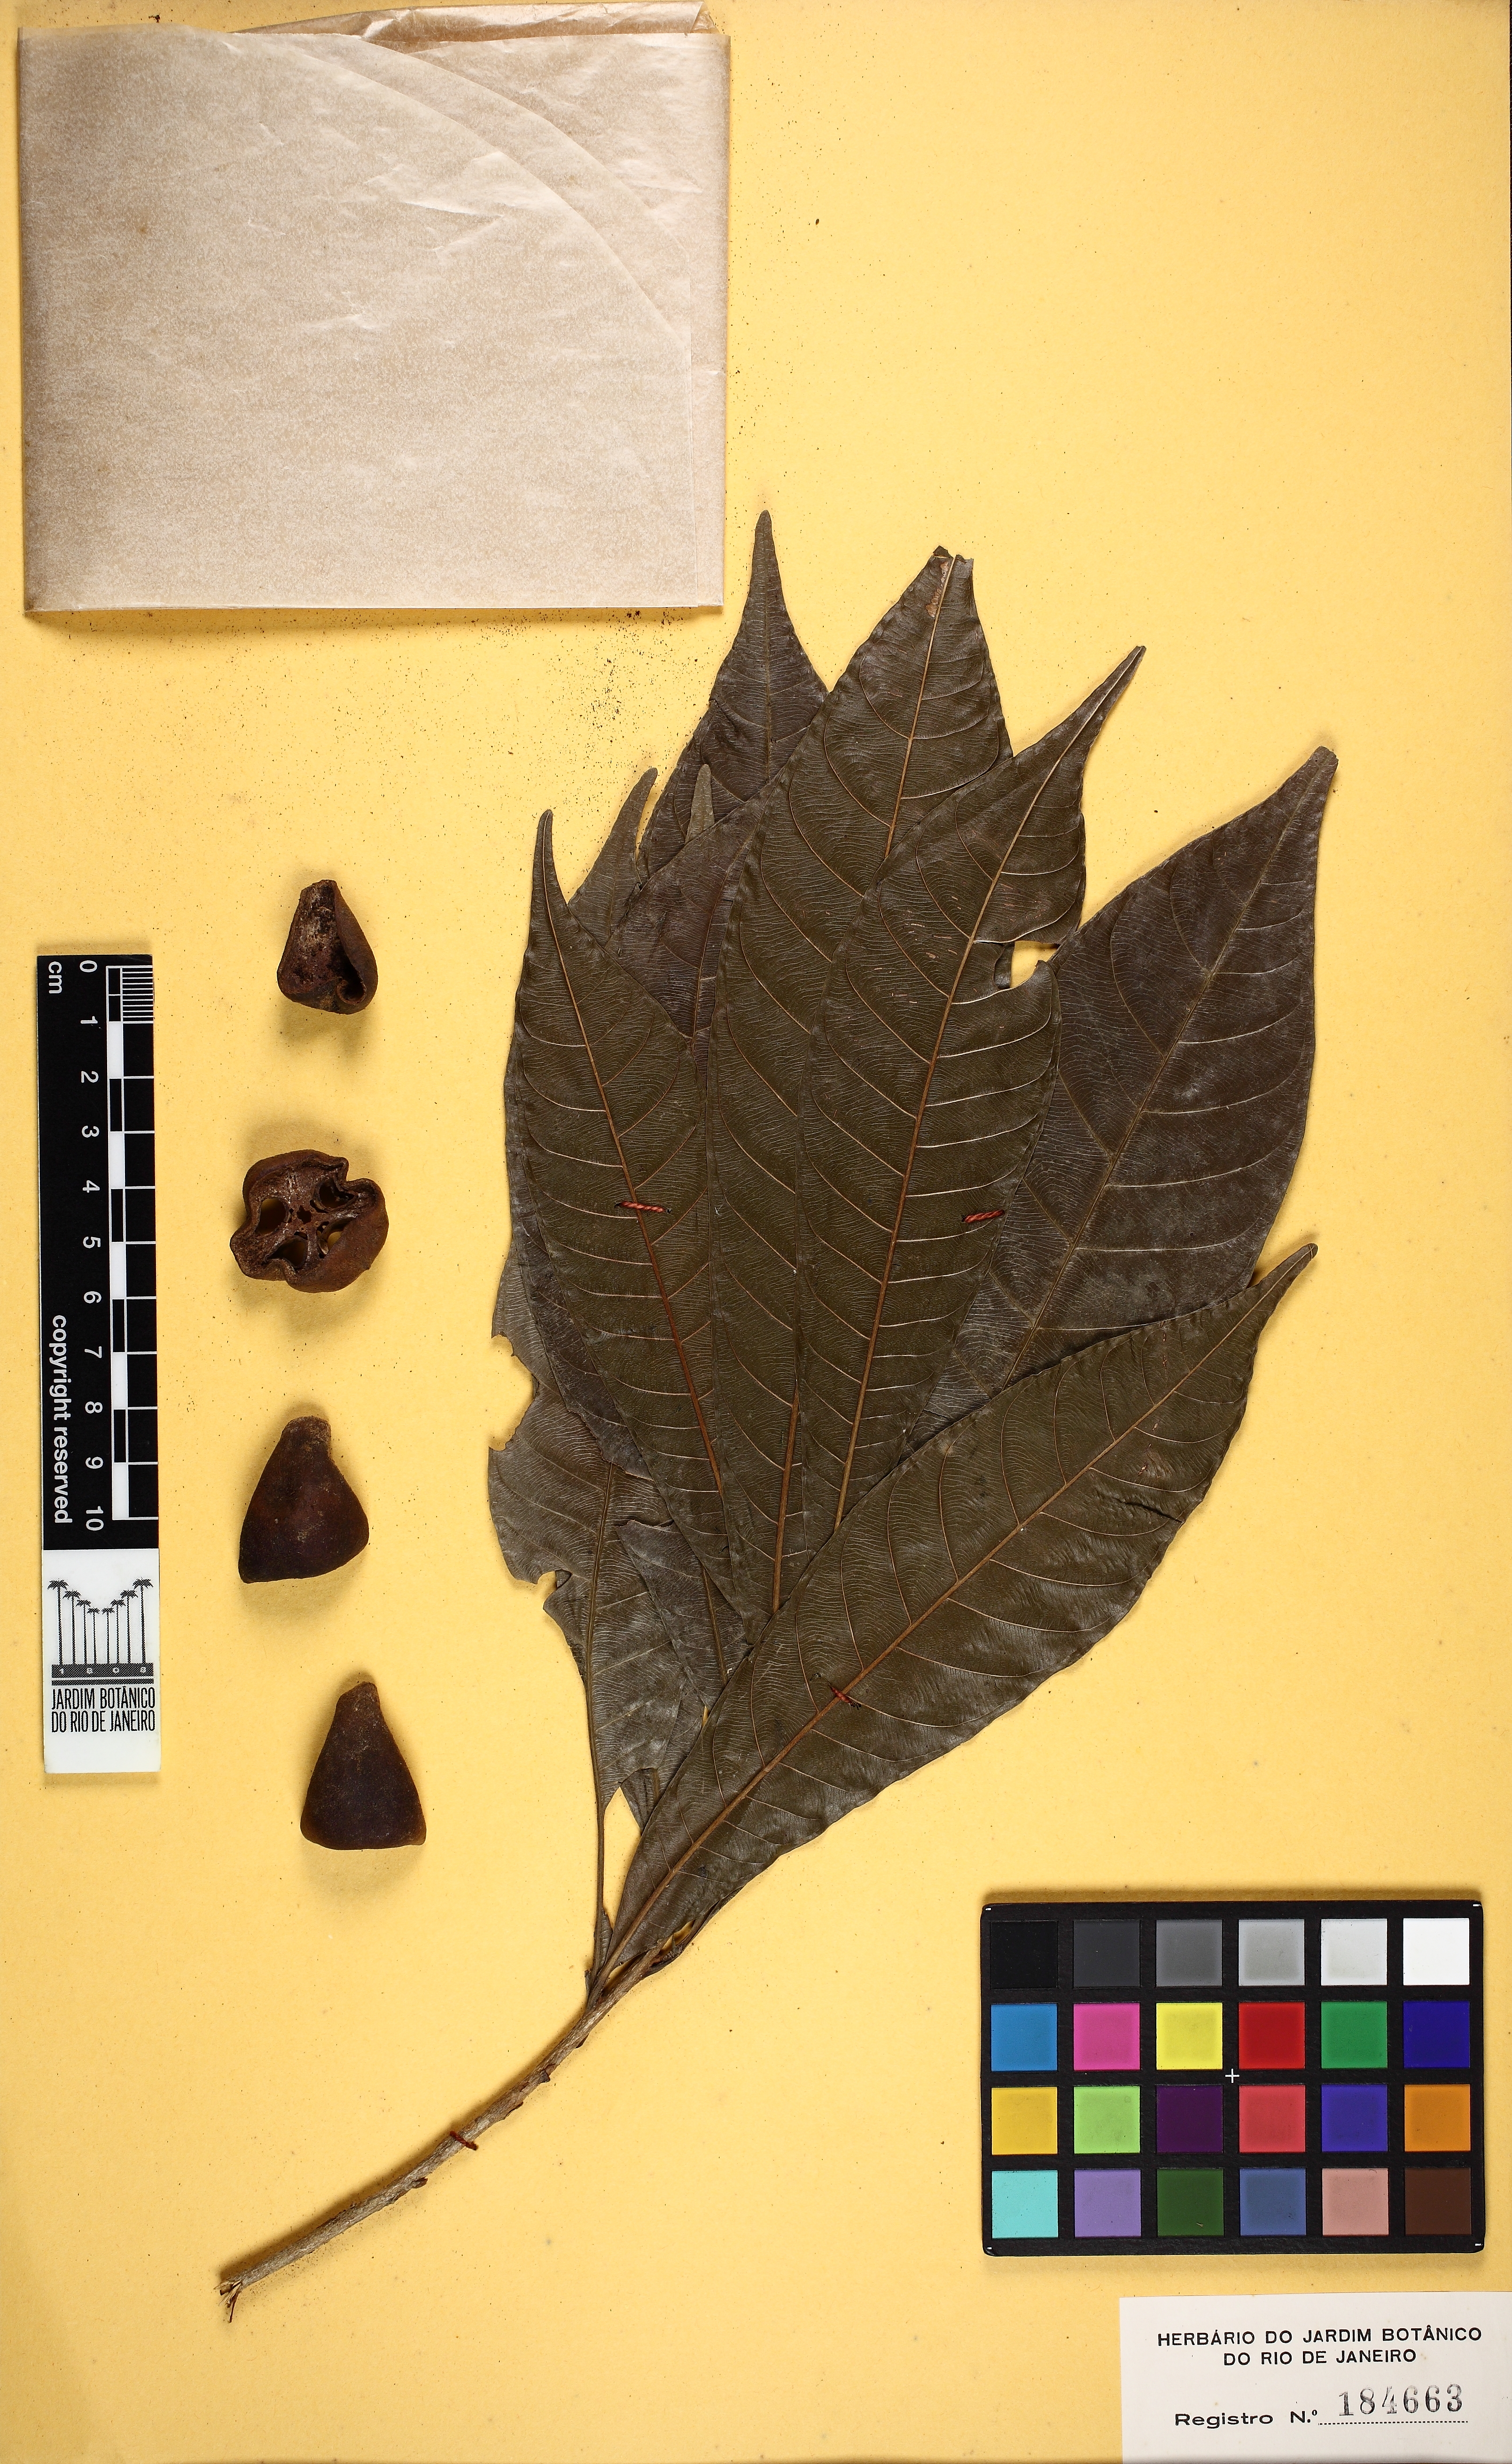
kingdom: Plantae
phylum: Tracheophyta
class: Magnoliopsida
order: Ericales
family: Sapotaceae
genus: Chrysophyllum
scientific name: Chrysophyllum amazonicum
